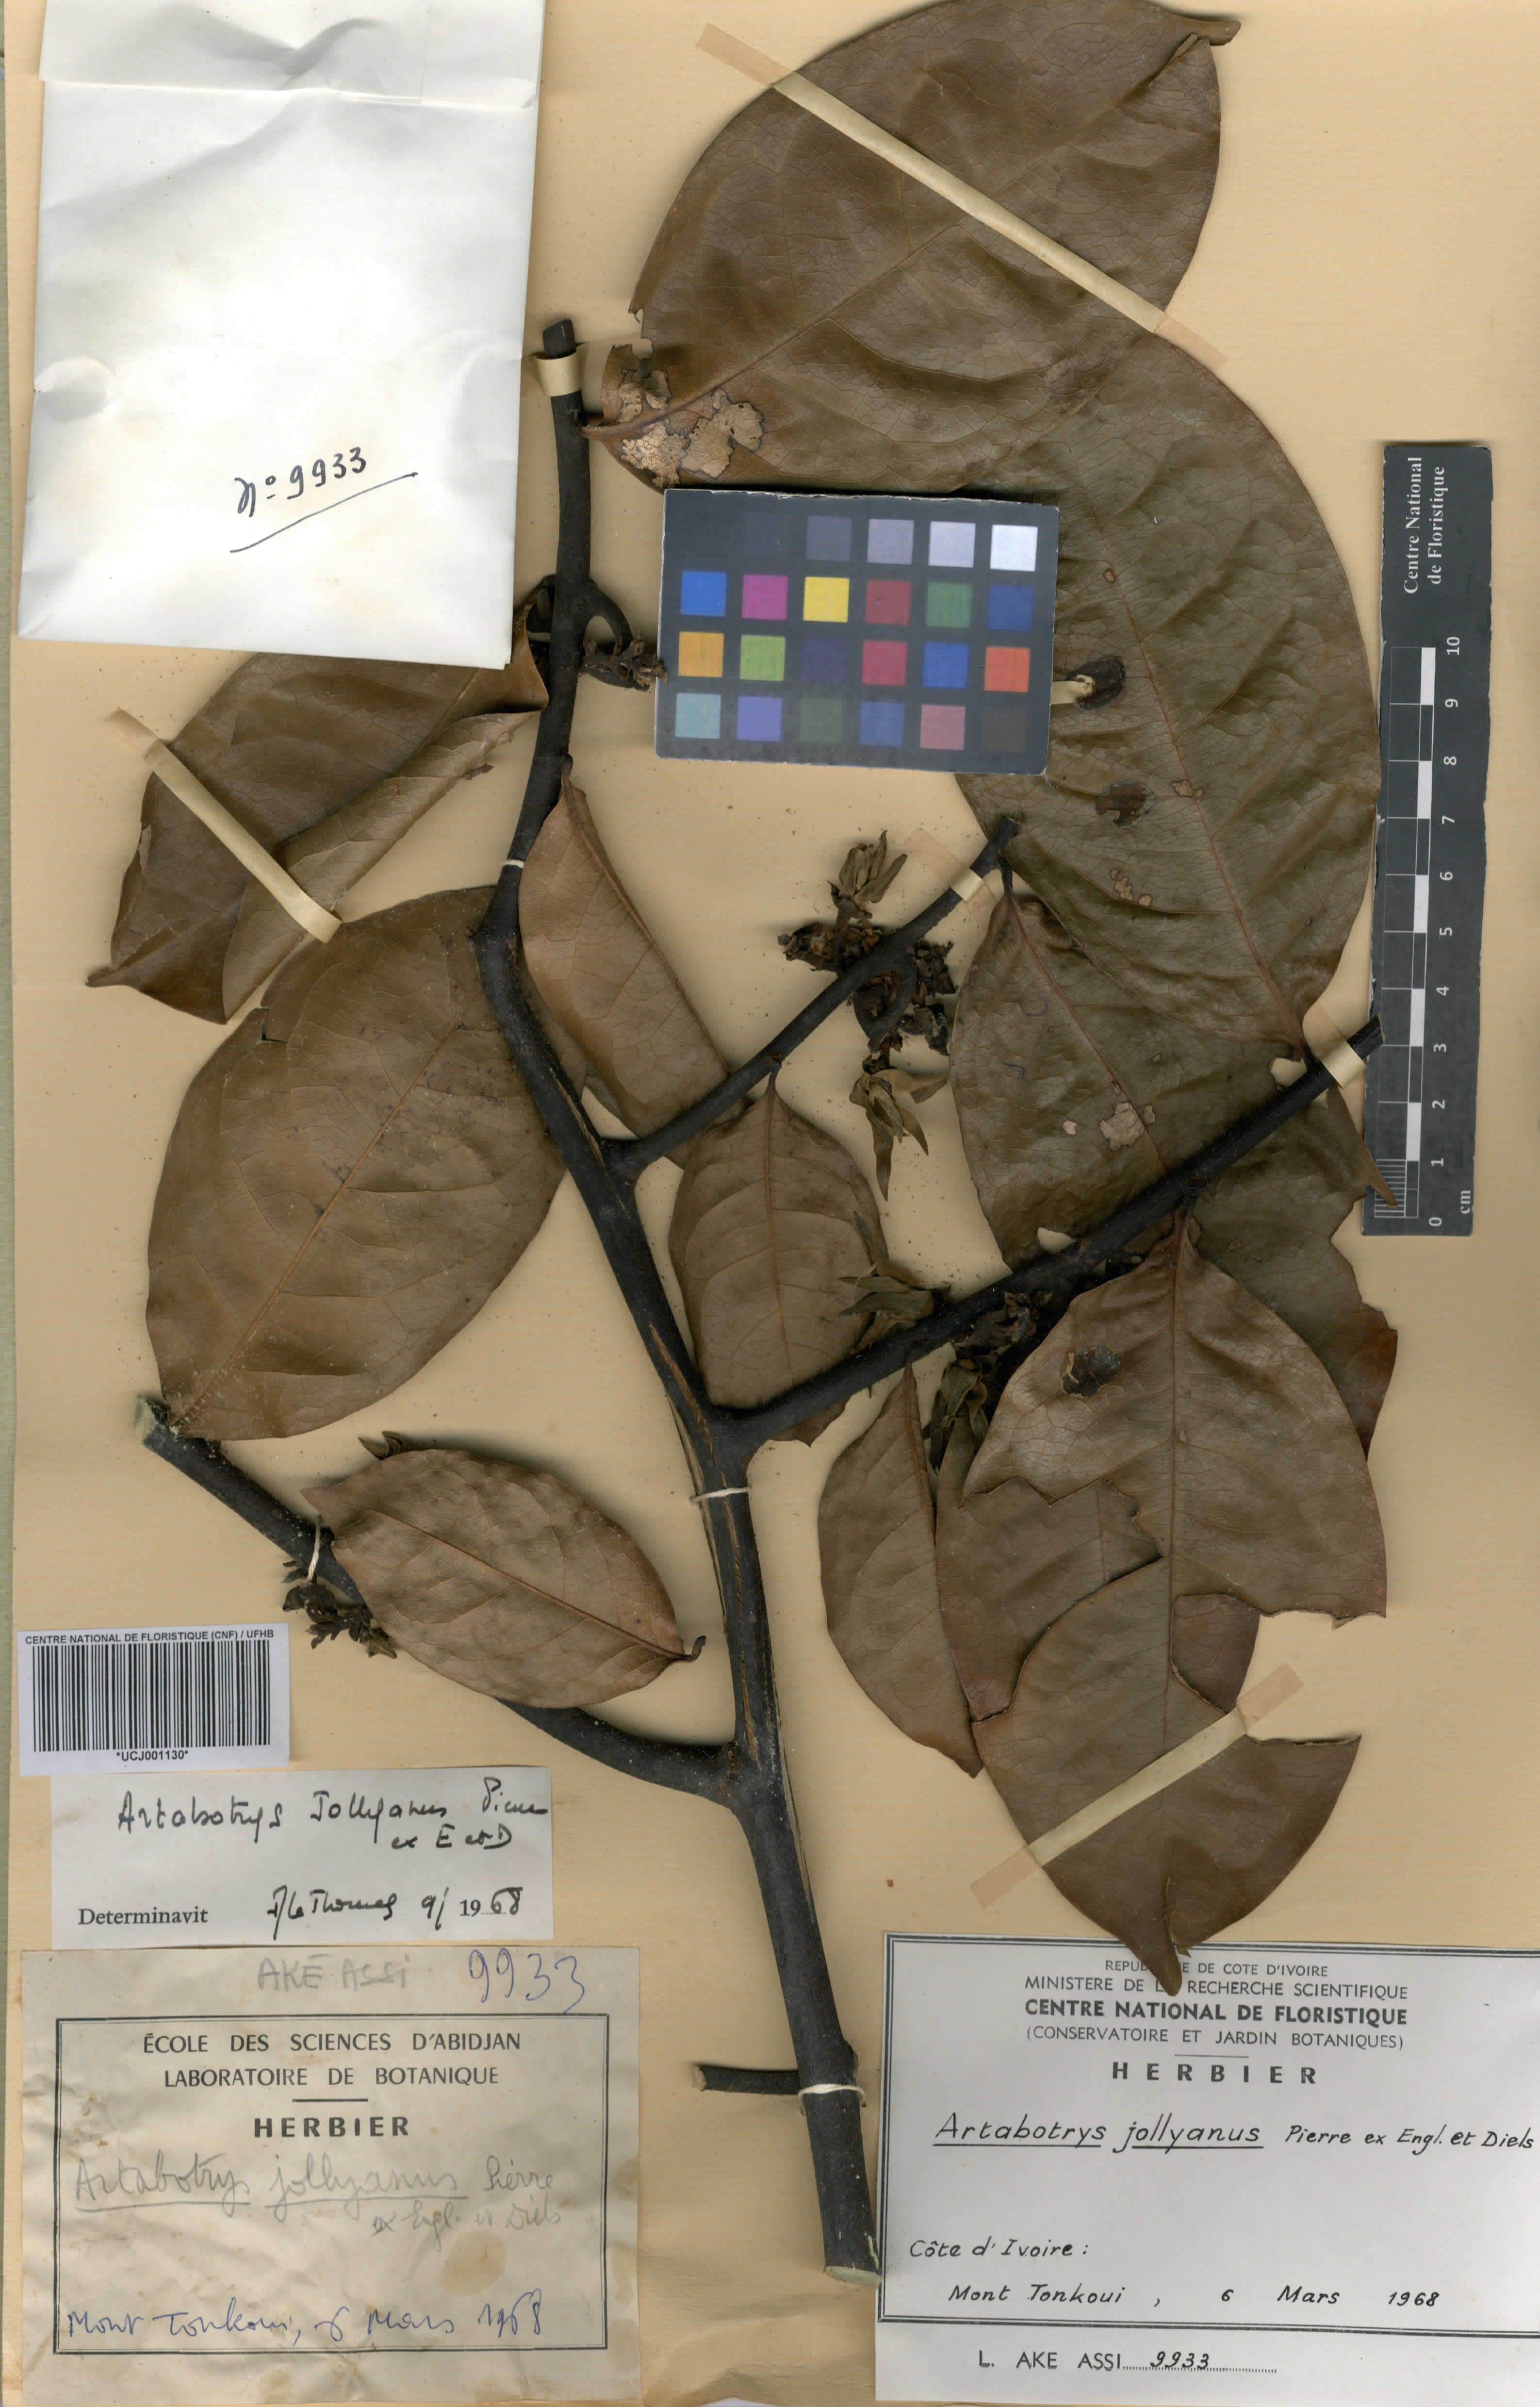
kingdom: Plantae
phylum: Tracheophyta
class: Magnoliopsida
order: Magnoliales
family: Annonaceae
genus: Artabotrys
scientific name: Artabotrys jollyanus
